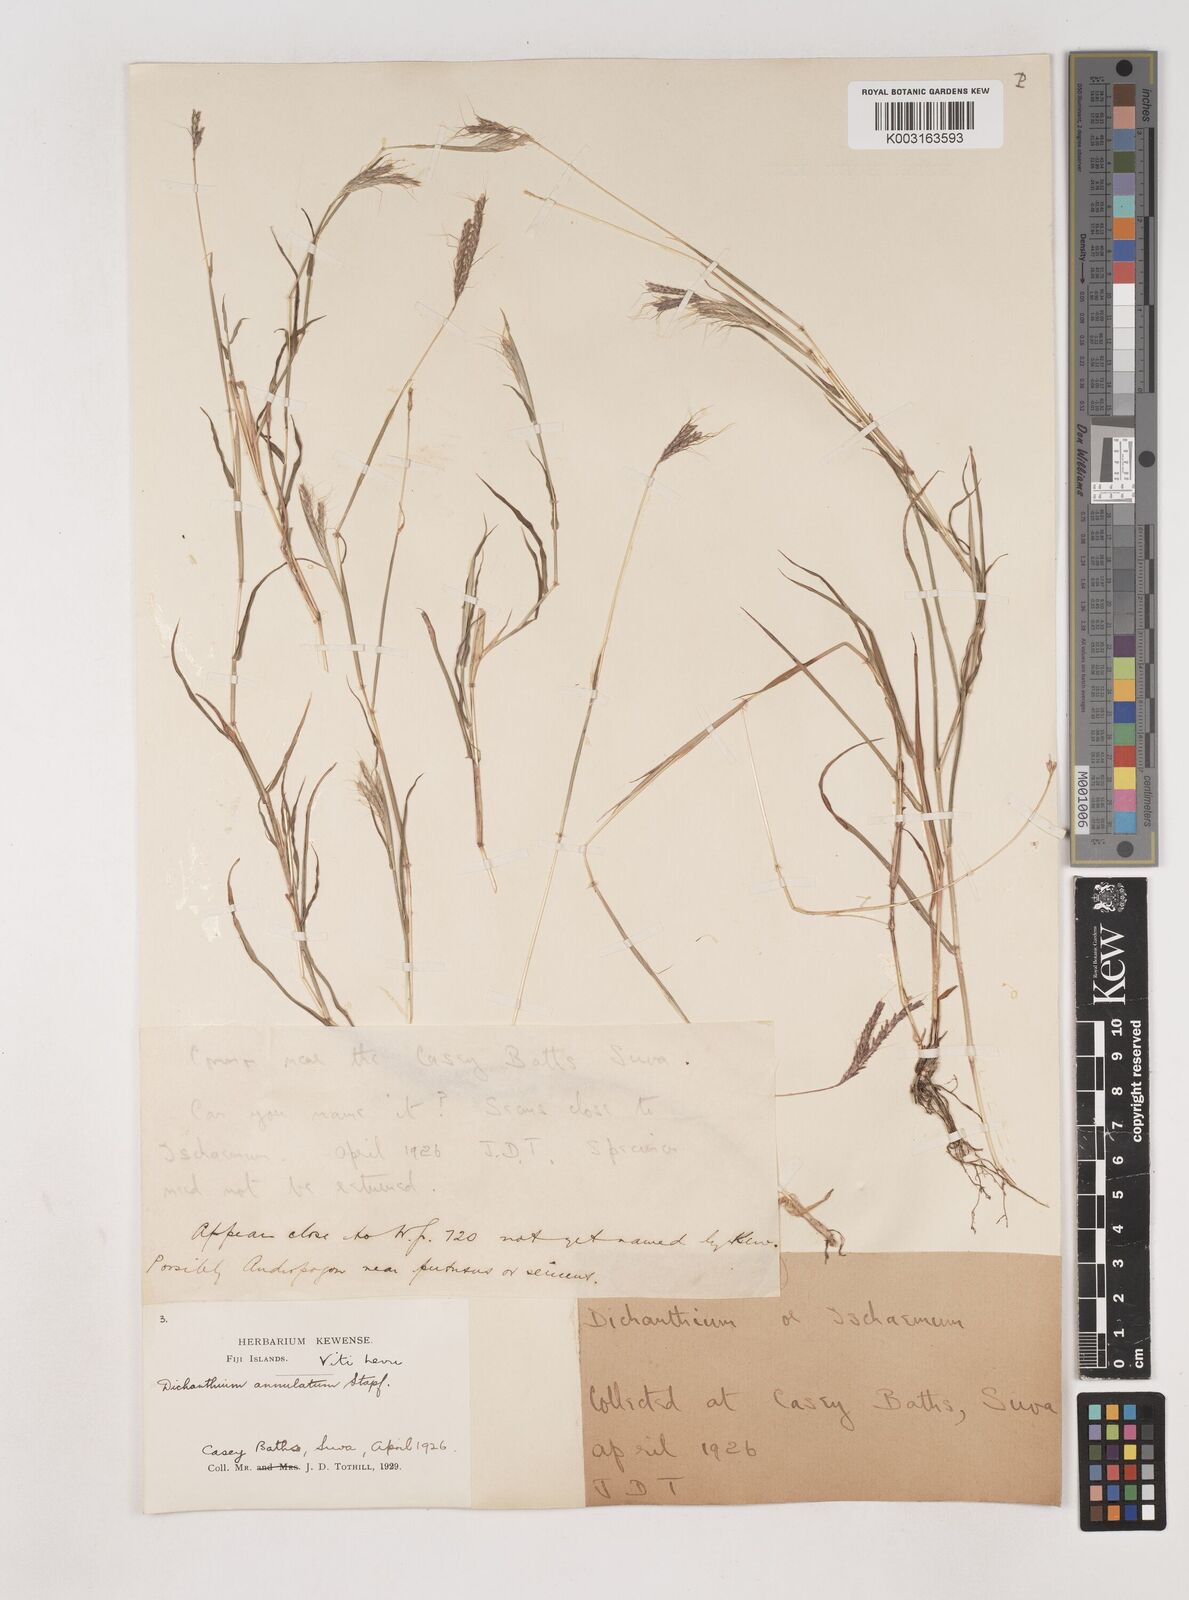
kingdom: Plantae
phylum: Tracheophyta
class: Liliopsida
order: Poales
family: Poaceae
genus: Dichanthium
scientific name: Dichanthium annulatum
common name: Kleberg's bluestem
